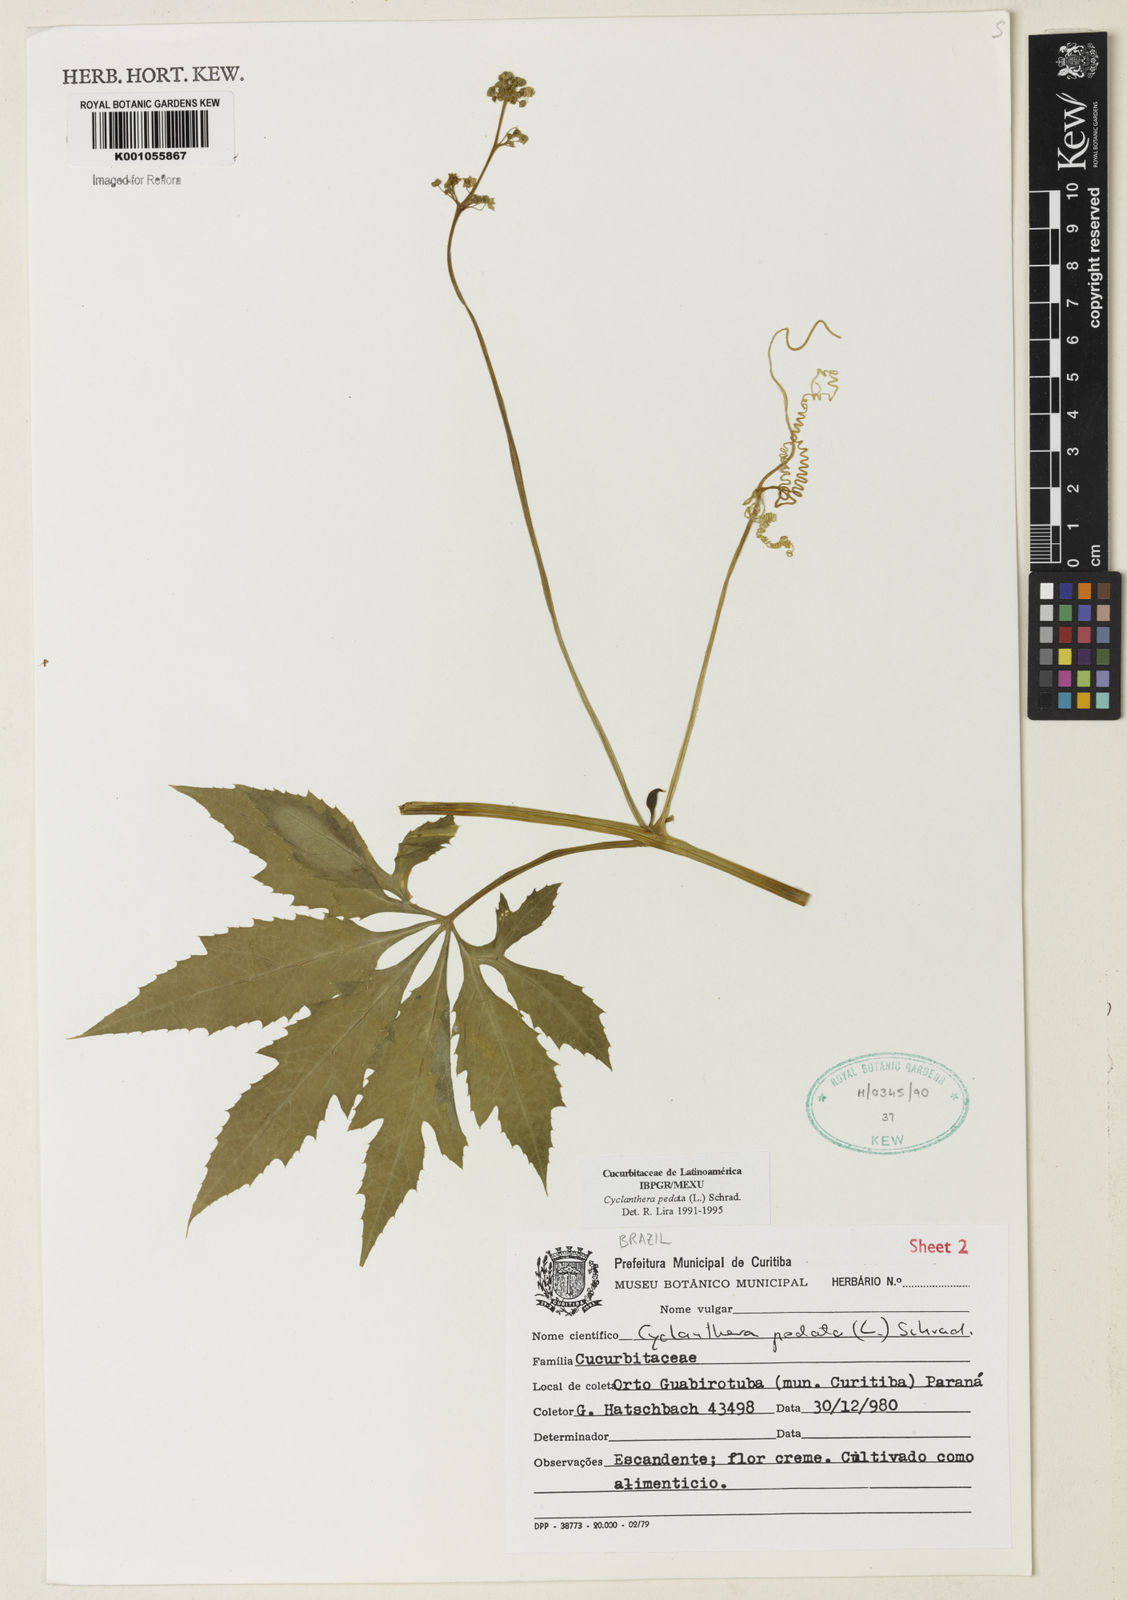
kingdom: Plantae
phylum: Tracheophyta
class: Magnoliopsida
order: Cucurbitales
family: Cucurbitaceae
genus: Cyclanthera
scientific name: Cyclanthera pedata
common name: Slipper goard
